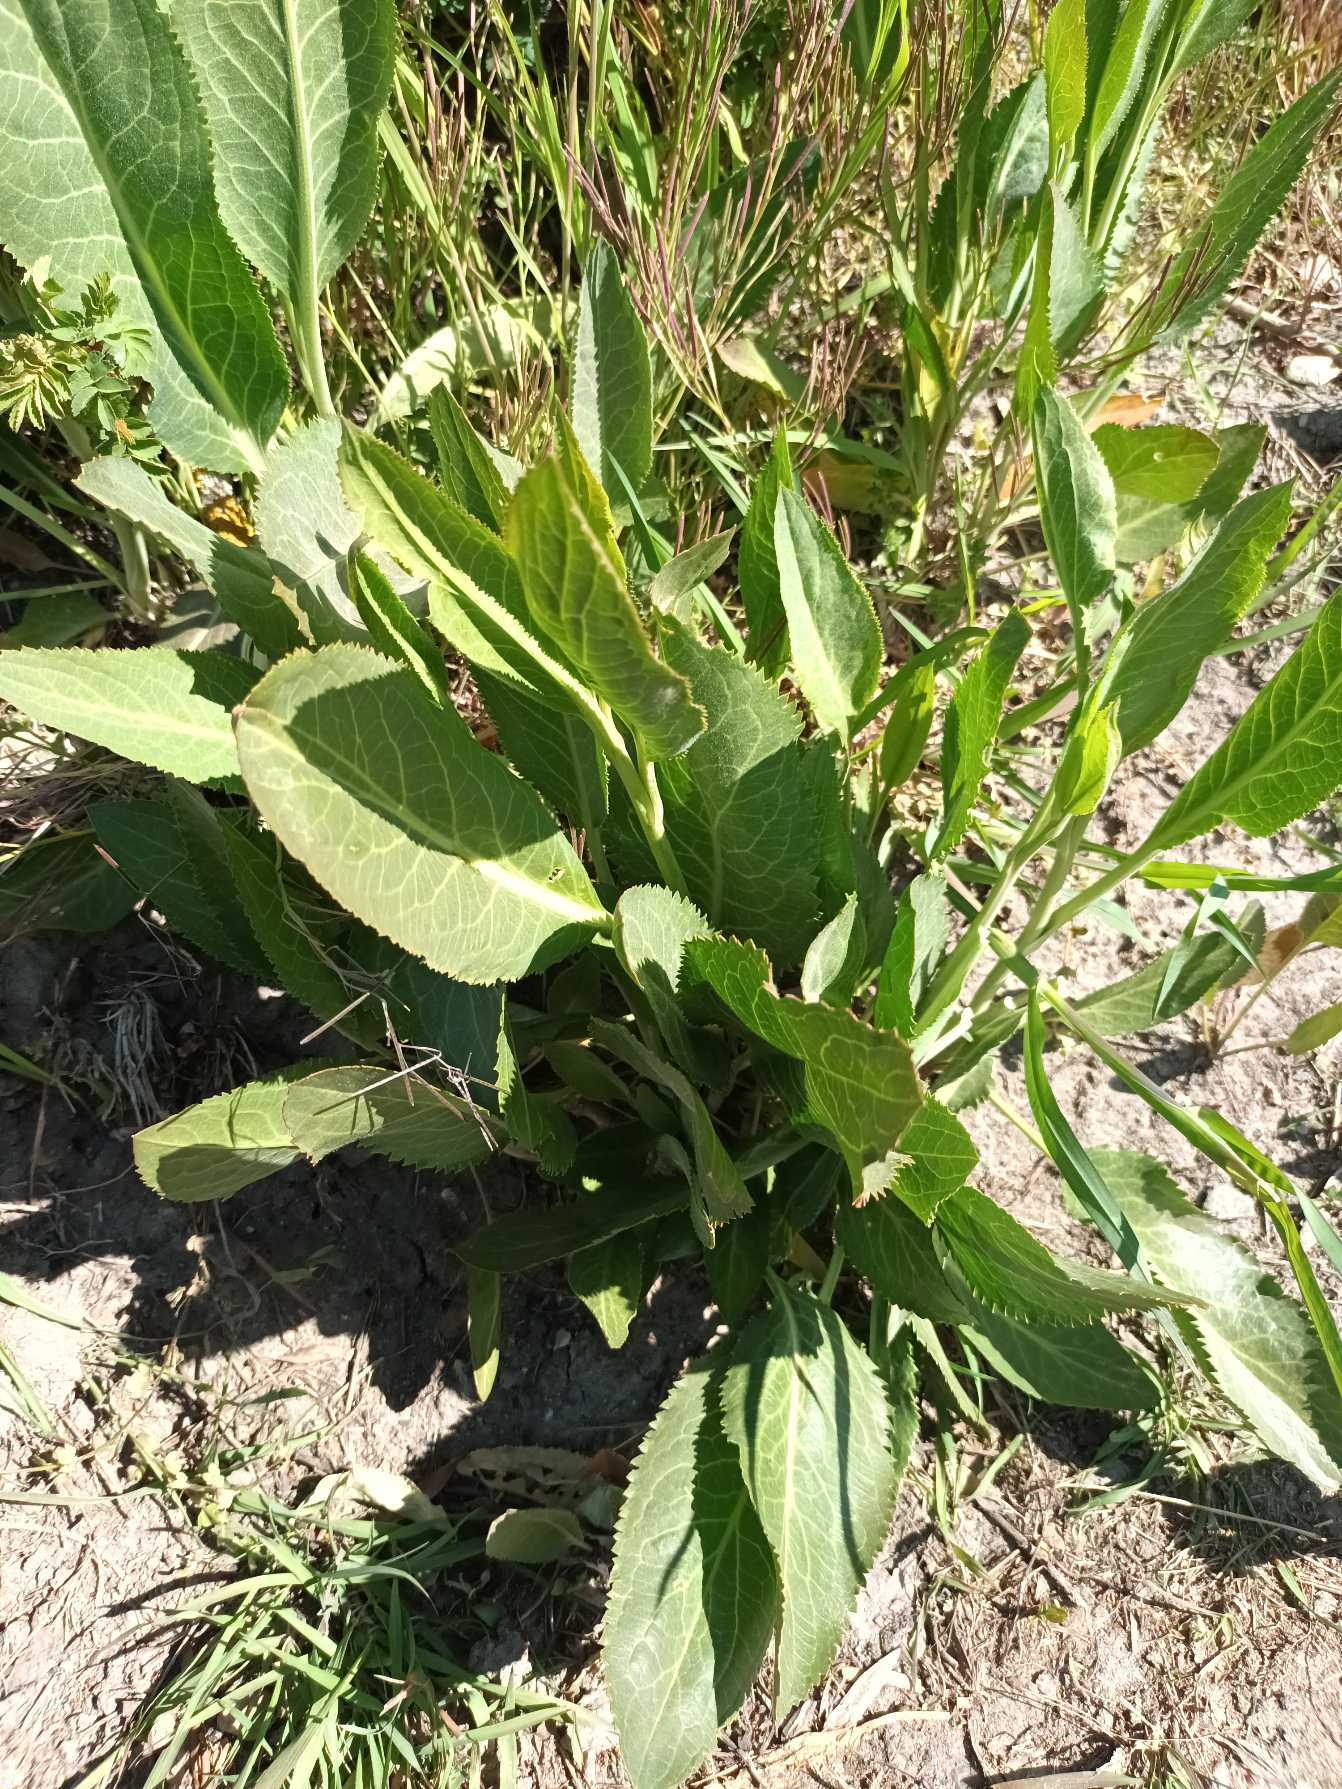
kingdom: Plantae
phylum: Tracheophyta
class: Magnoliopsida
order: Brassicales
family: Brassicaceae
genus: Lepidium
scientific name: Lepidium latifolium
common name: Strand-karse
